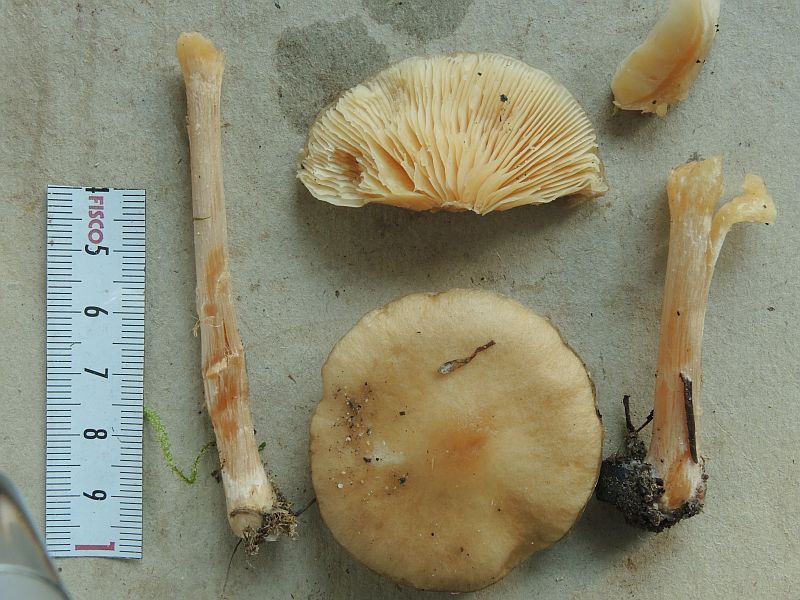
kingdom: Fungi
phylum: Basidiomycota
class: Agaricomycetes
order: Agaricales
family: Tricholomataceae
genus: Melanoleuca
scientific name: Melanoleuca cognata
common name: gyldengrå munkehat
